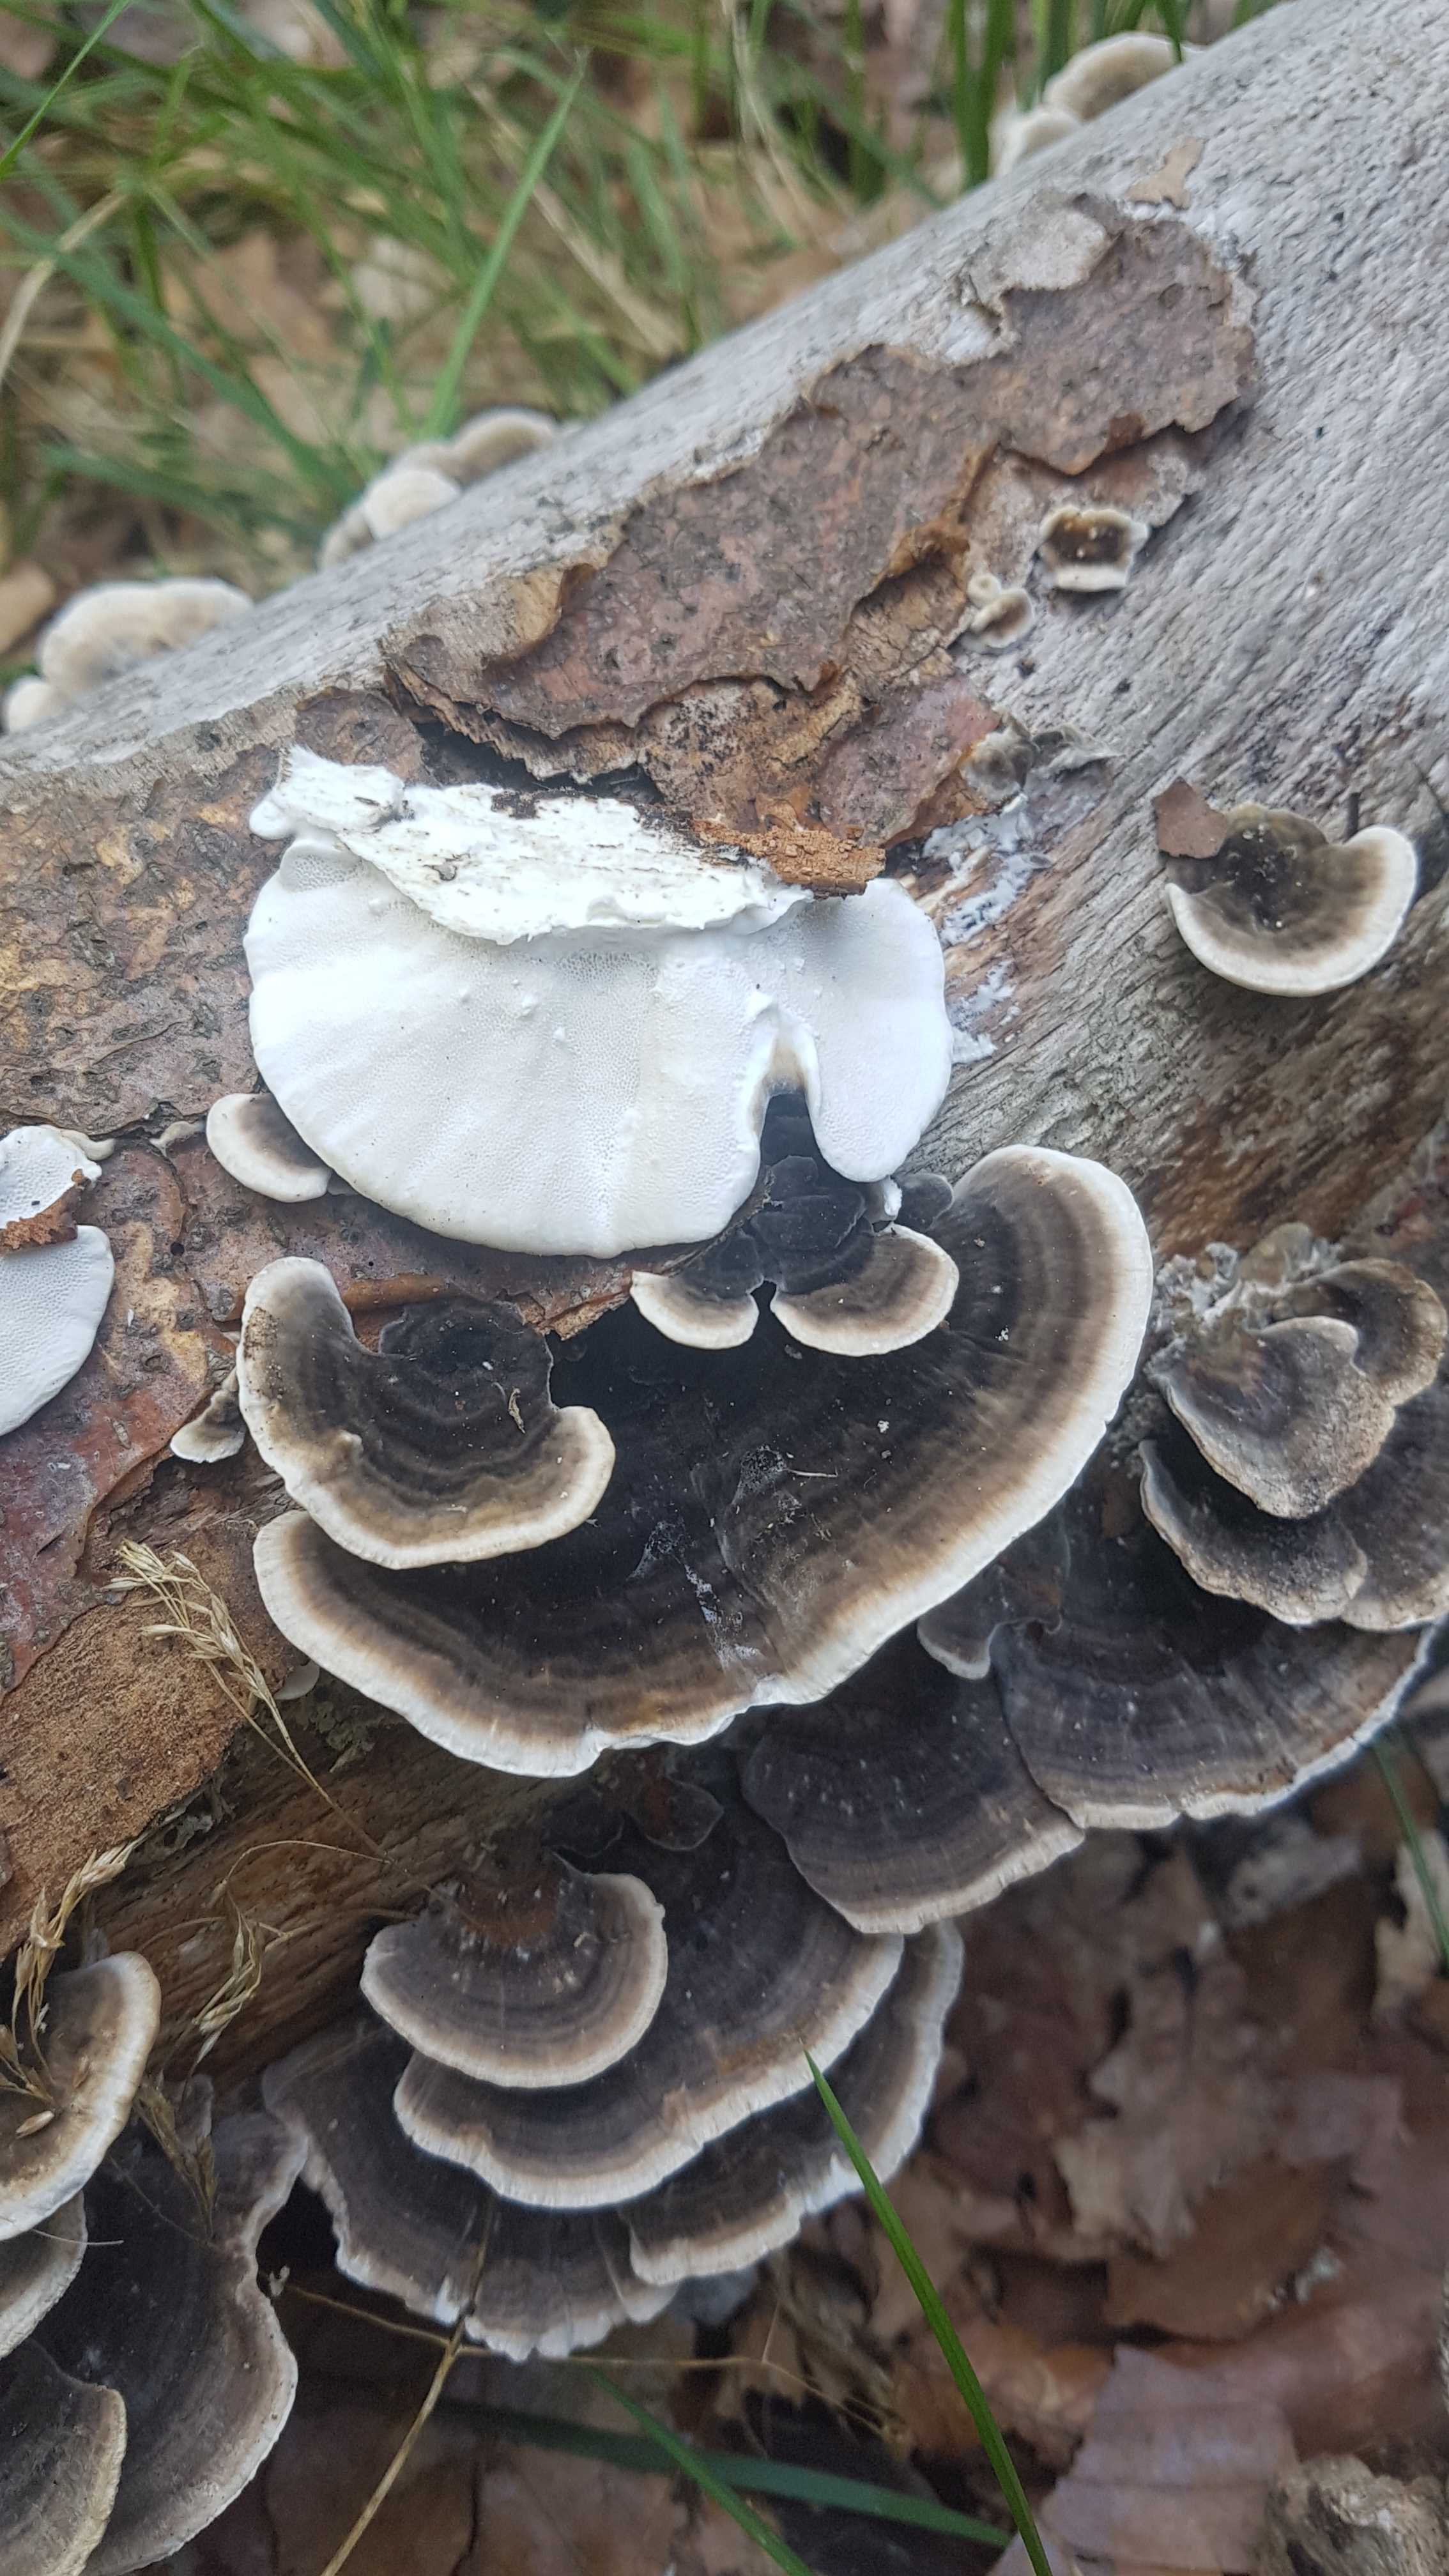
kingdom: Fungi
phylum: Basidiomycota
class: Agaricomycetes
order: Polyporales
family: Polyporaceae
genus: Trametes
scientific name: Trametes versicolor
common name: broget læderporesvamp
